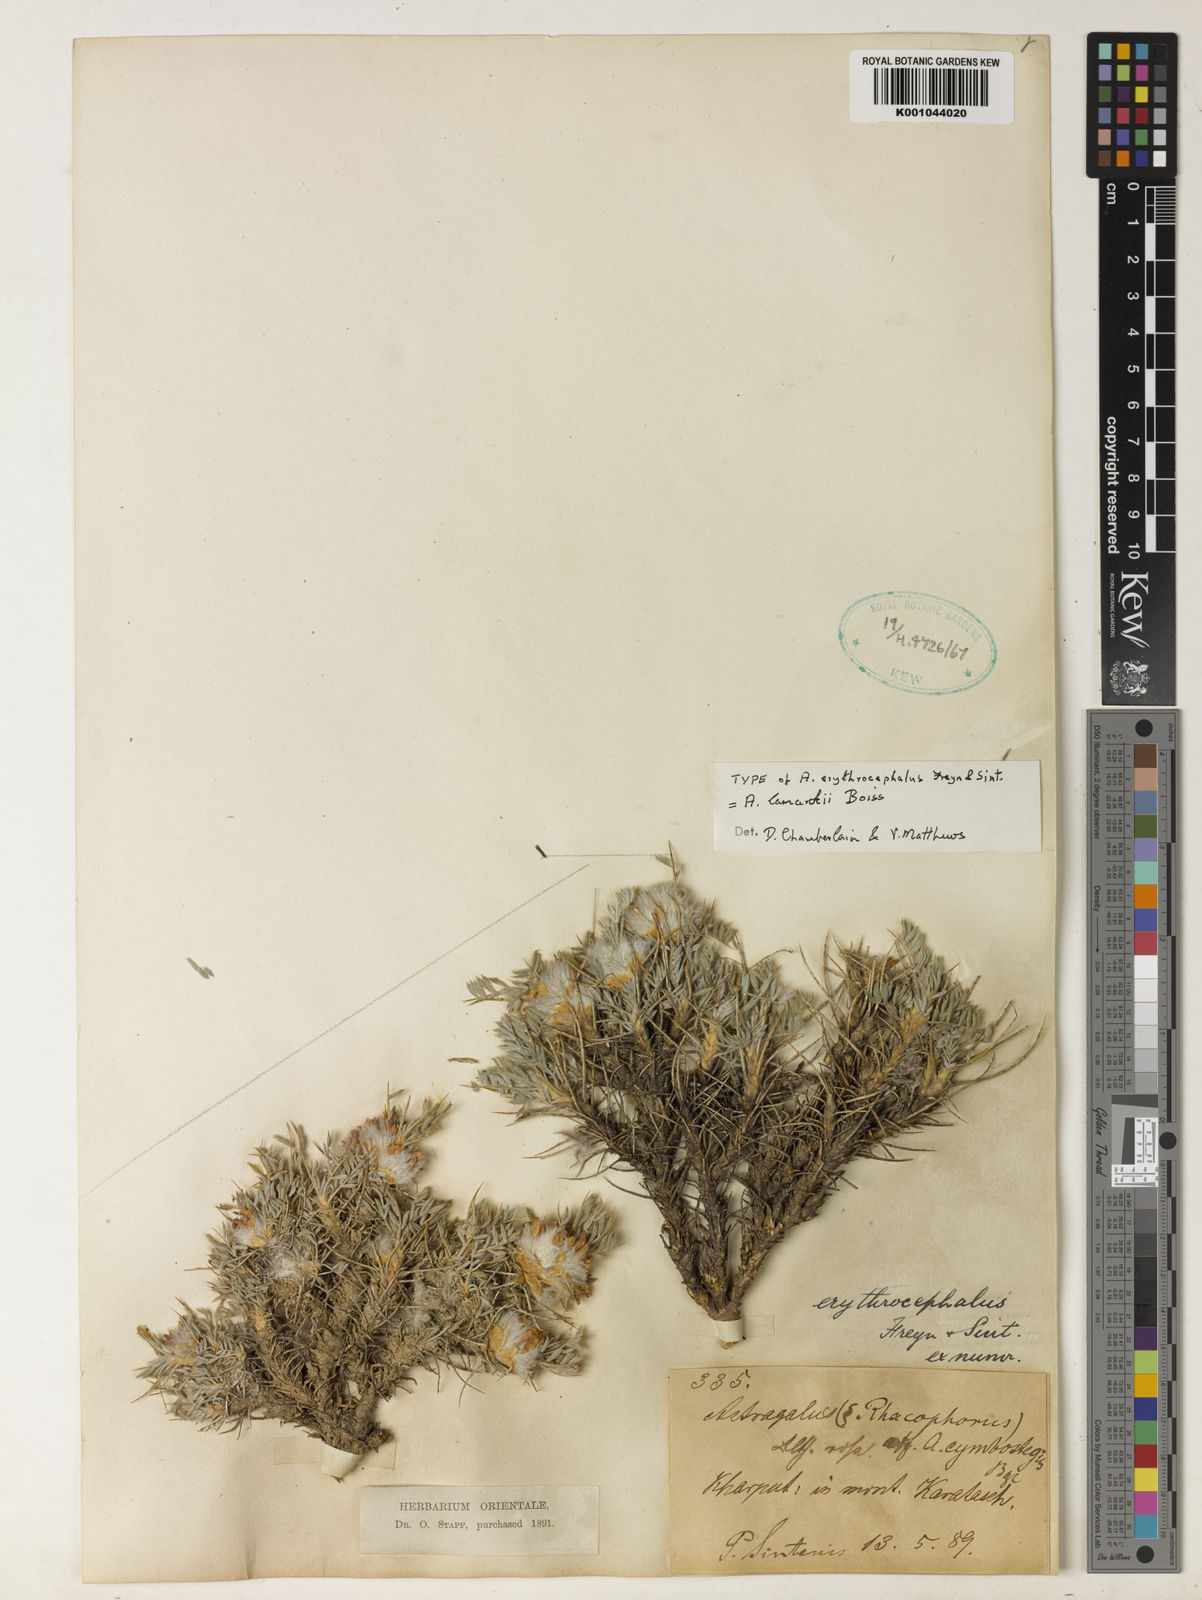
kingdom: Plantae
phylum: Tracheophyta
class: Magnoliopsida
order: Fabales
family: Fabaceae
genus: Astragalus
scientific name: Astragalus lamarckii
